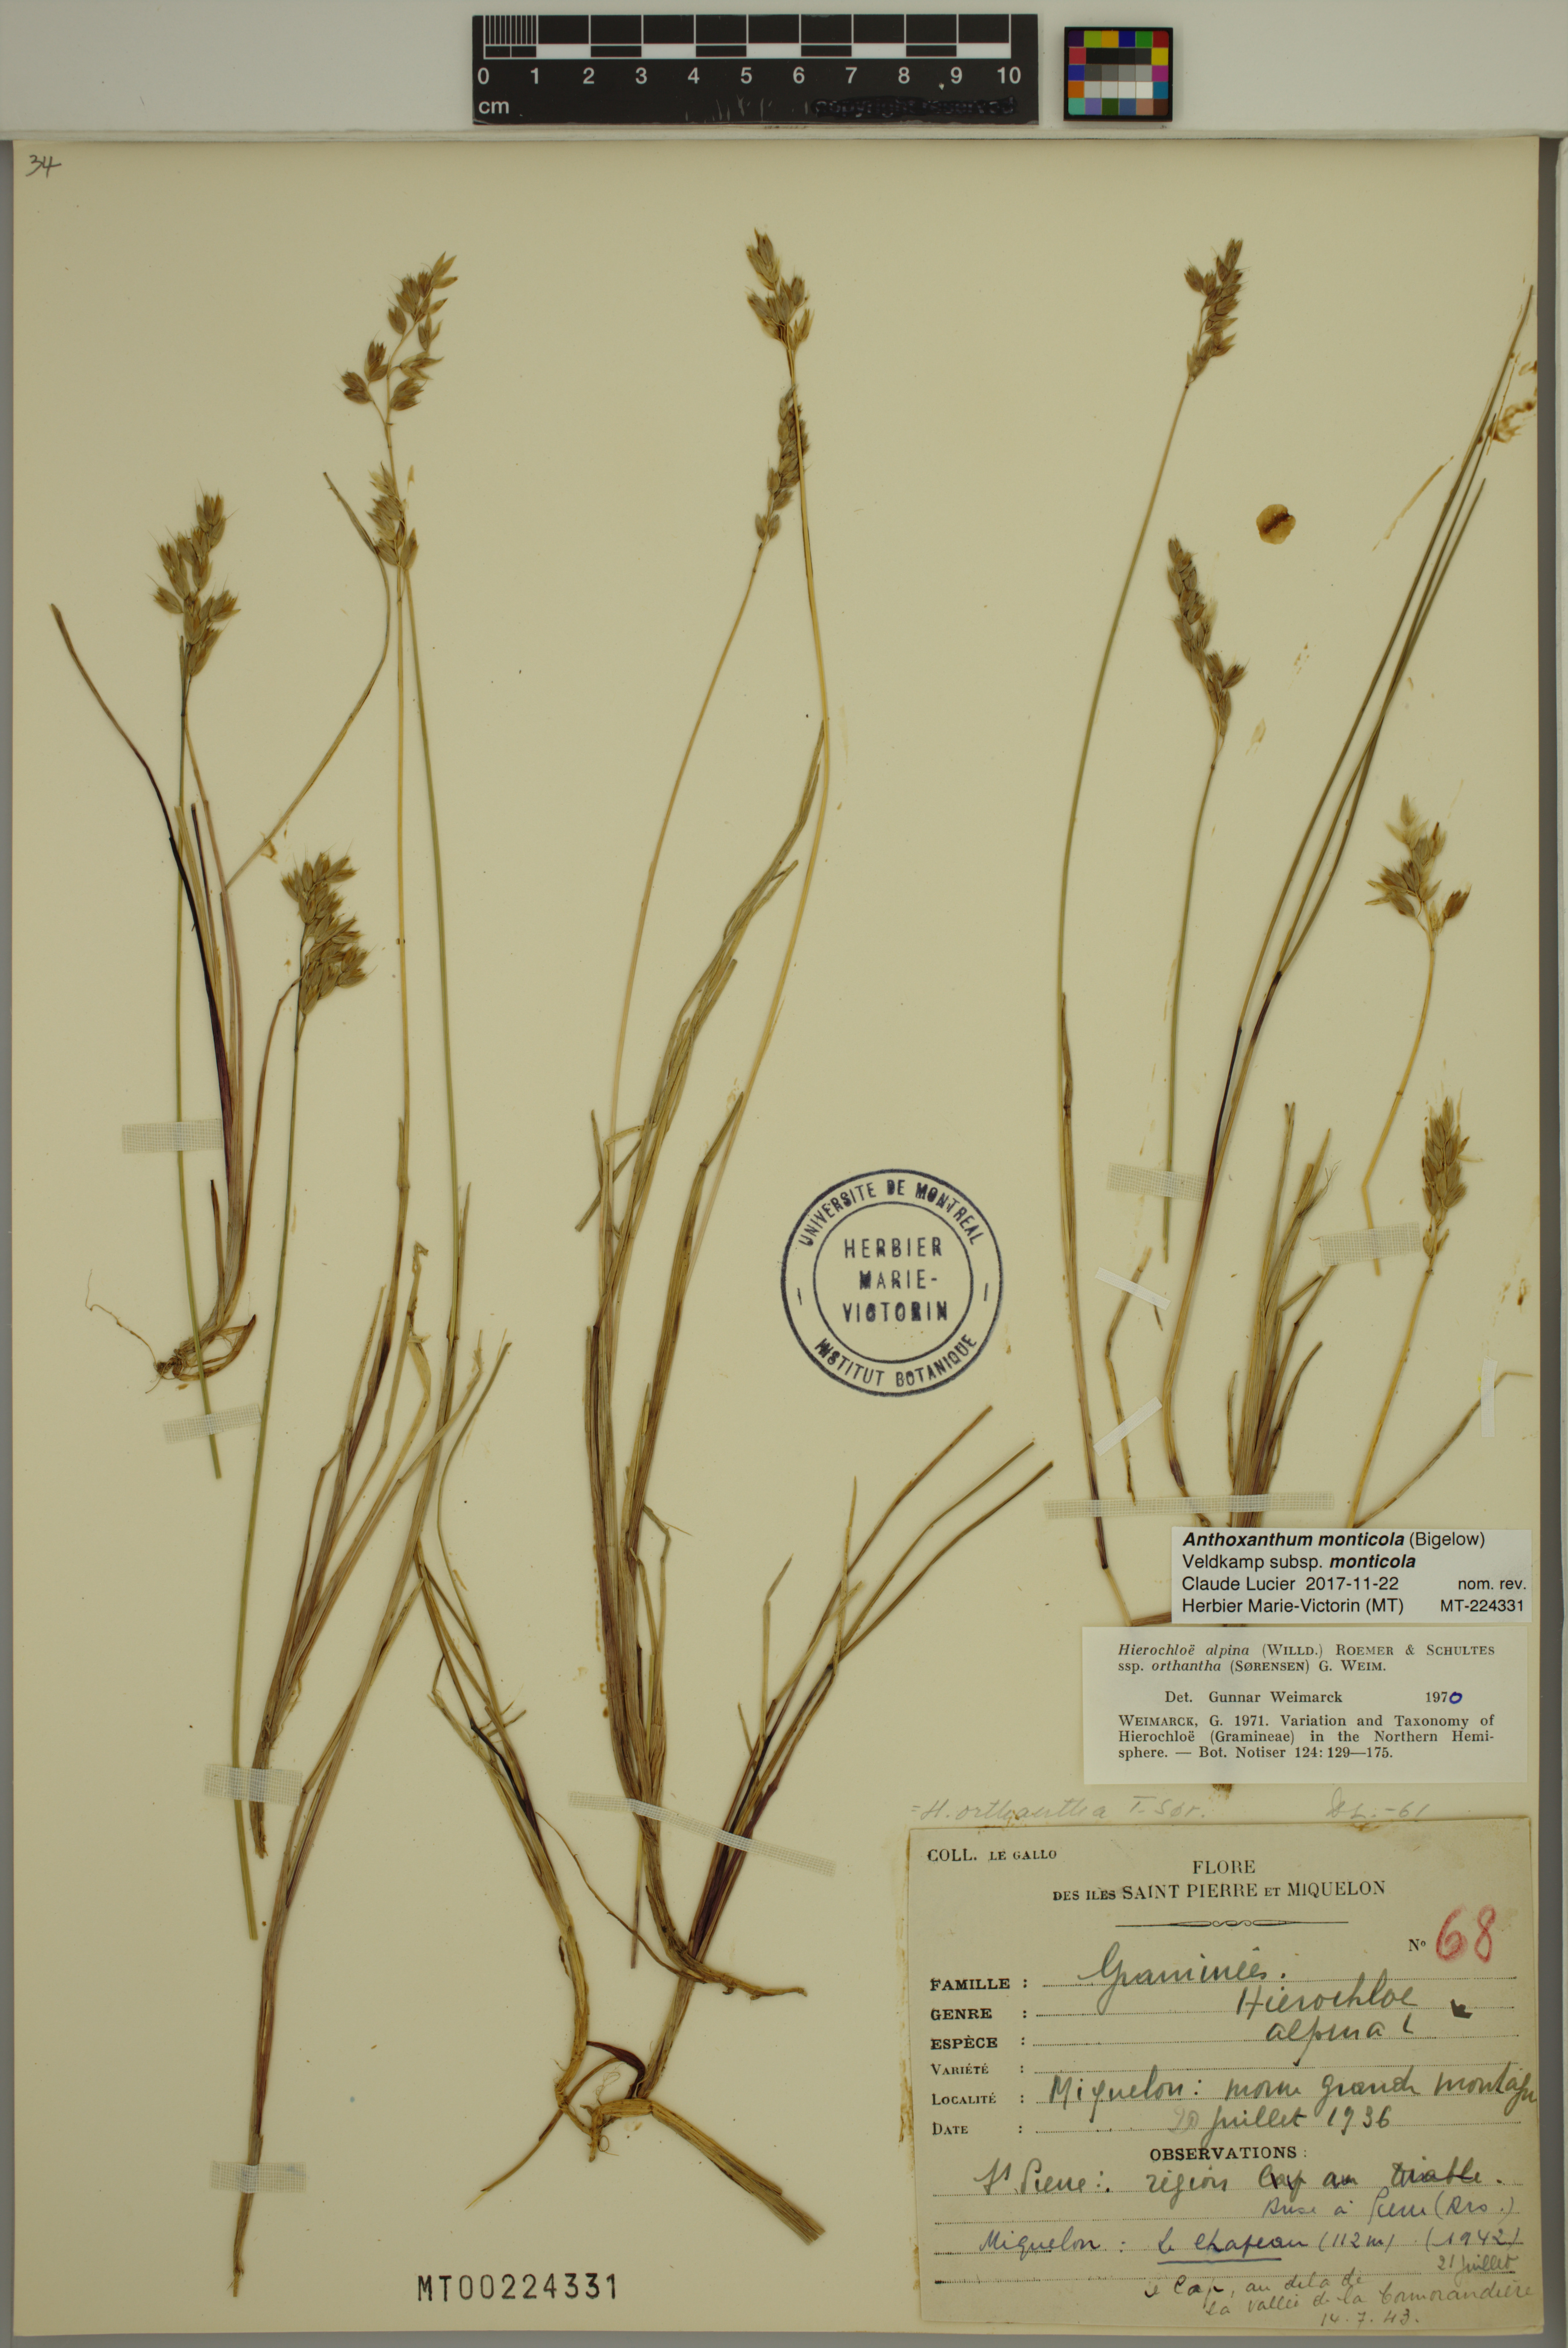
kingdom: Plantae
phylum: Tracheophyta
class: Liliopsida
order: Poales
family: Poaceae
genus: Anthoxanthum
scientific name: Anthoxanthum monticola
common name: Alpine sweetgrass
